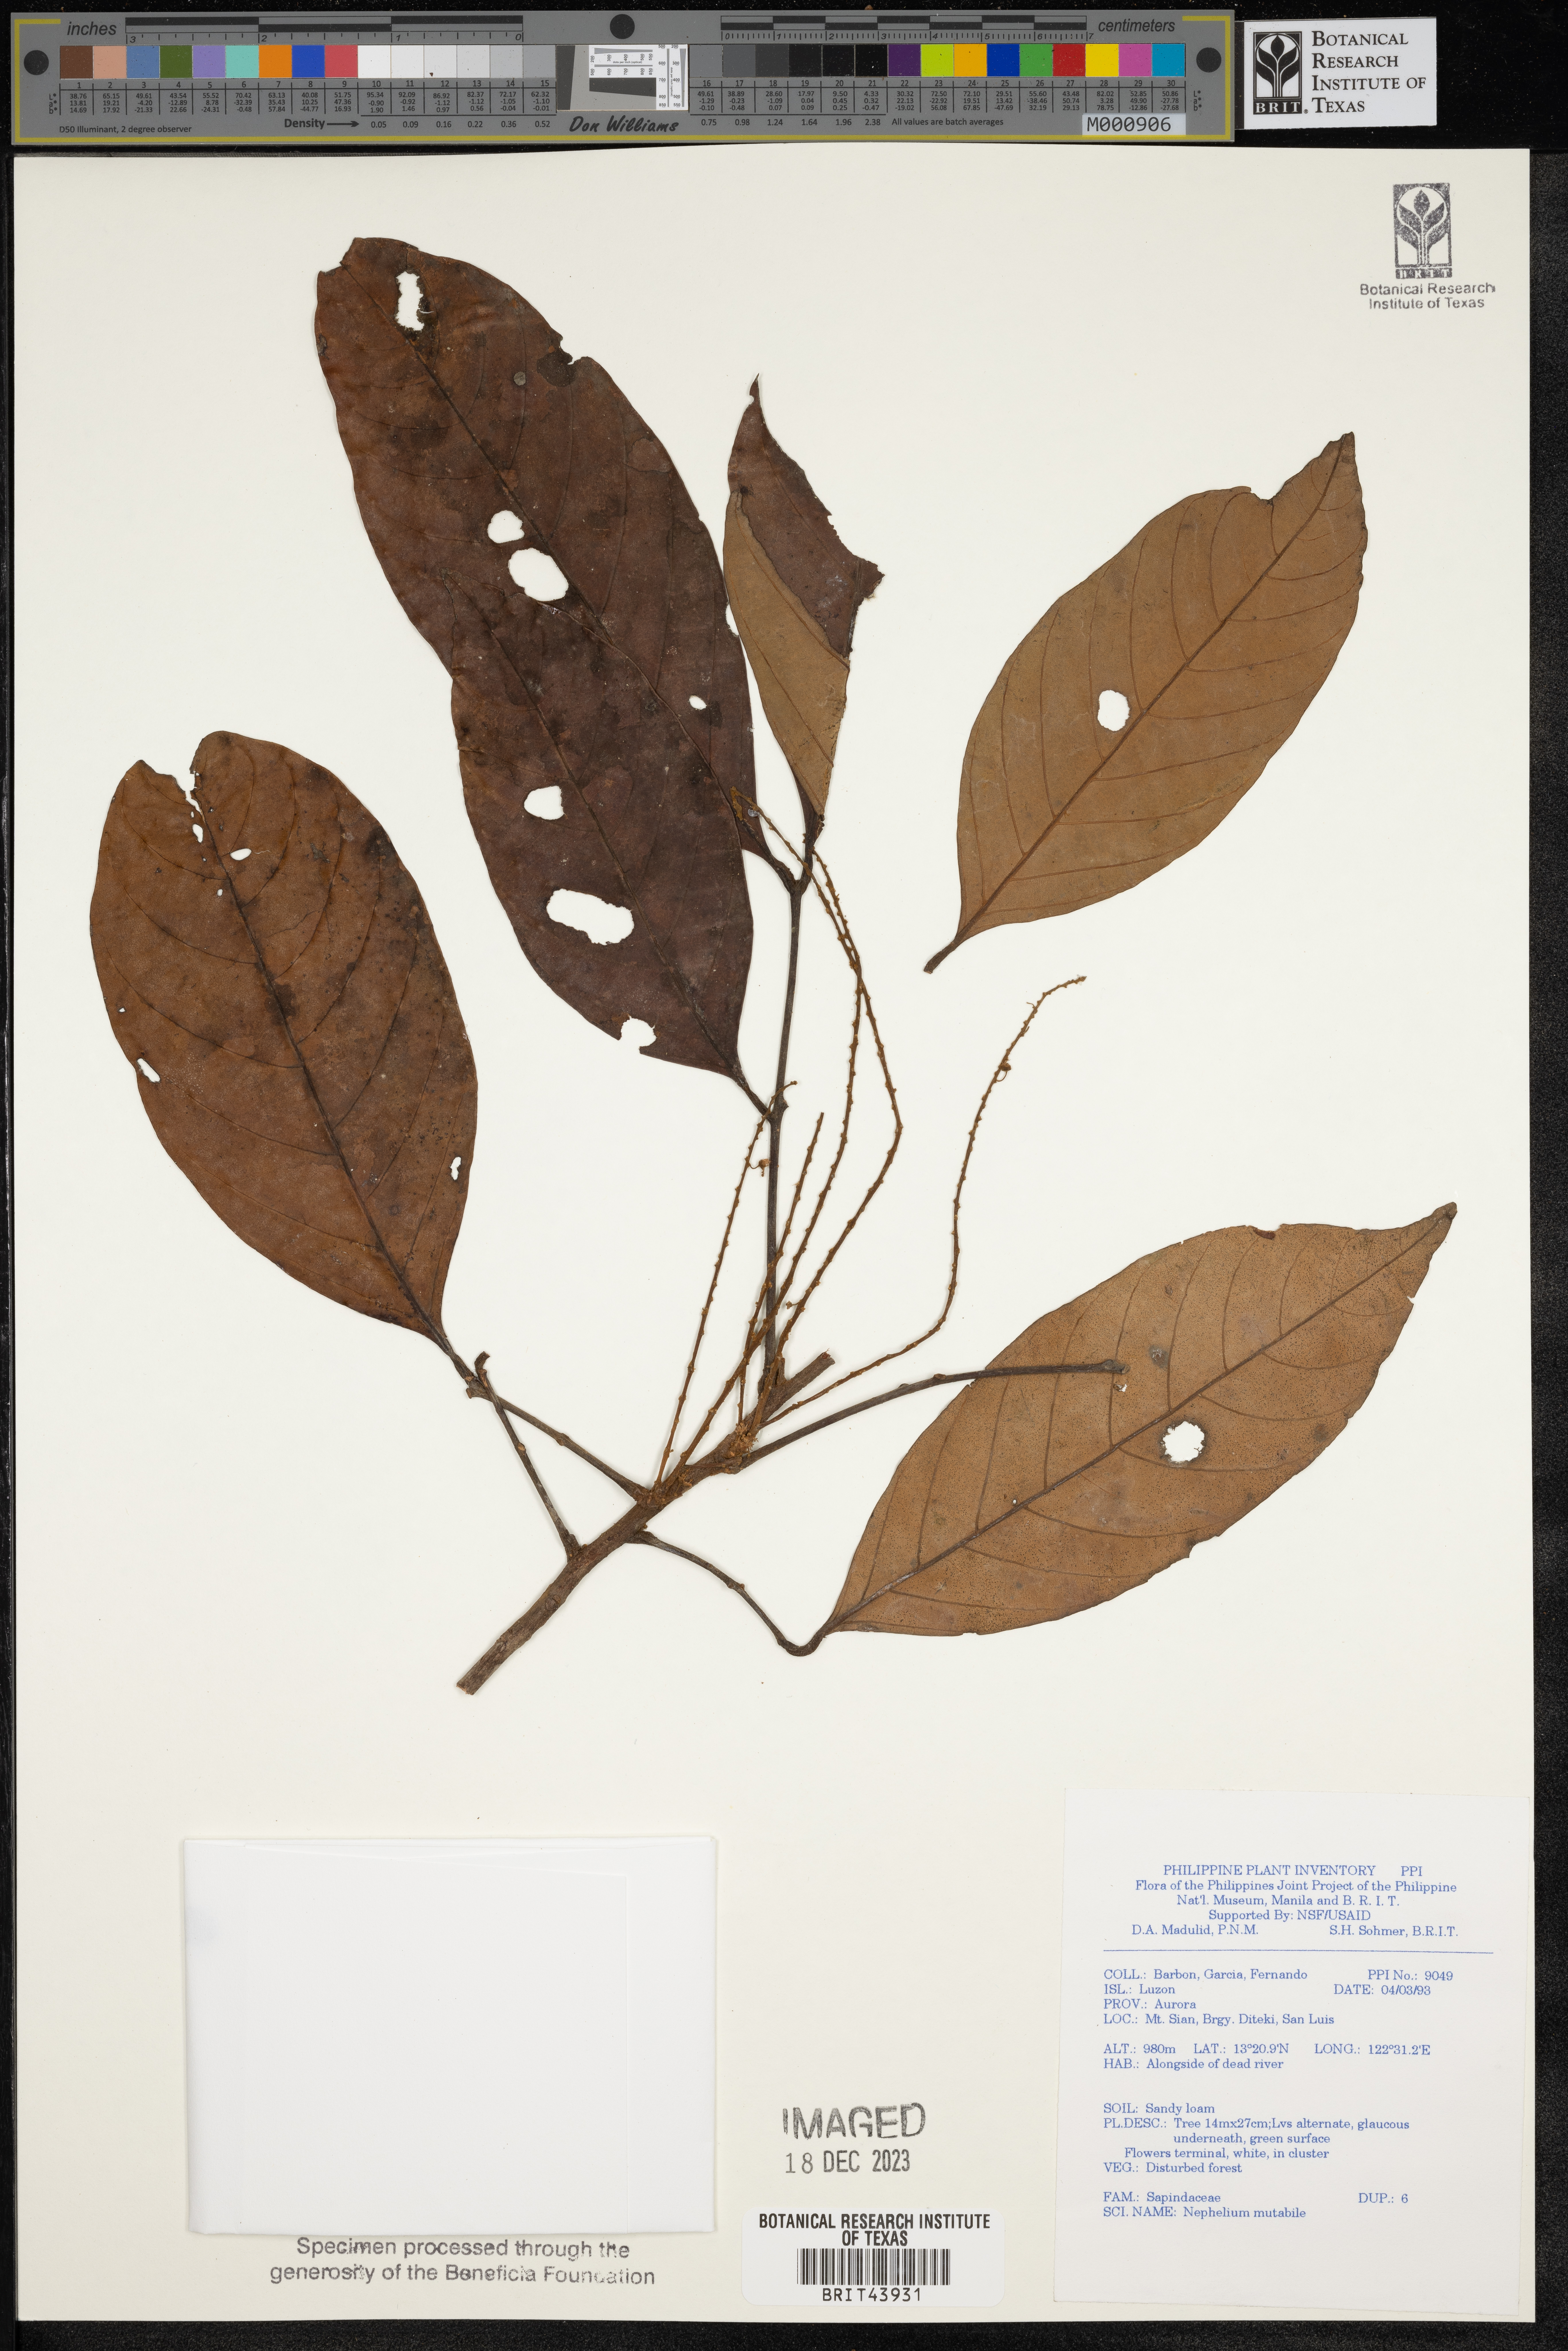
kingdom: Plantae
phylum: Tracheophyta
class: Magnoliopsida
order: Sapindales
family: Sapindaceae
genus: Nephelium
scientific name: Nephelium ramboutan-ake
